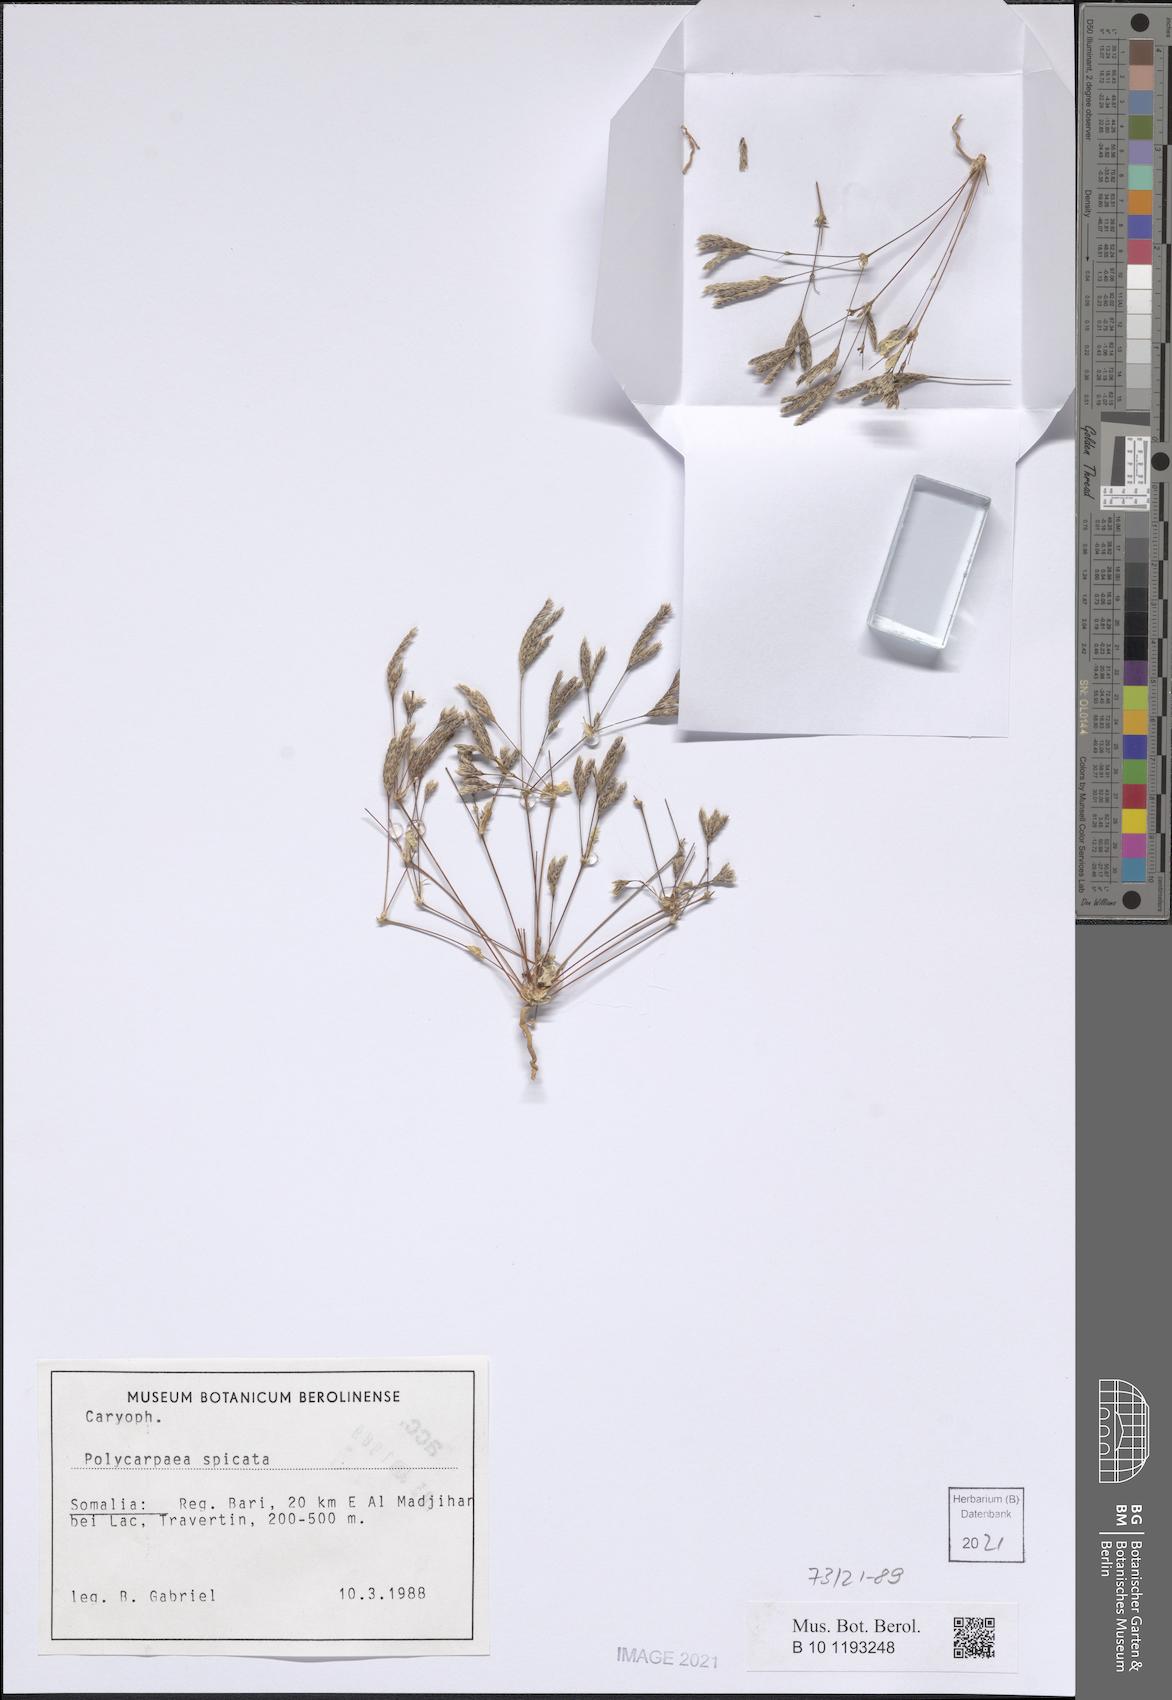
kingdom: Plantae
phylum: Tracheophyta
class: Magnoliopsida
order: Caryophyllales
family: Caryophyllaceae
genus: Polycarpaea
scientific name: Polycarpaea spicata
